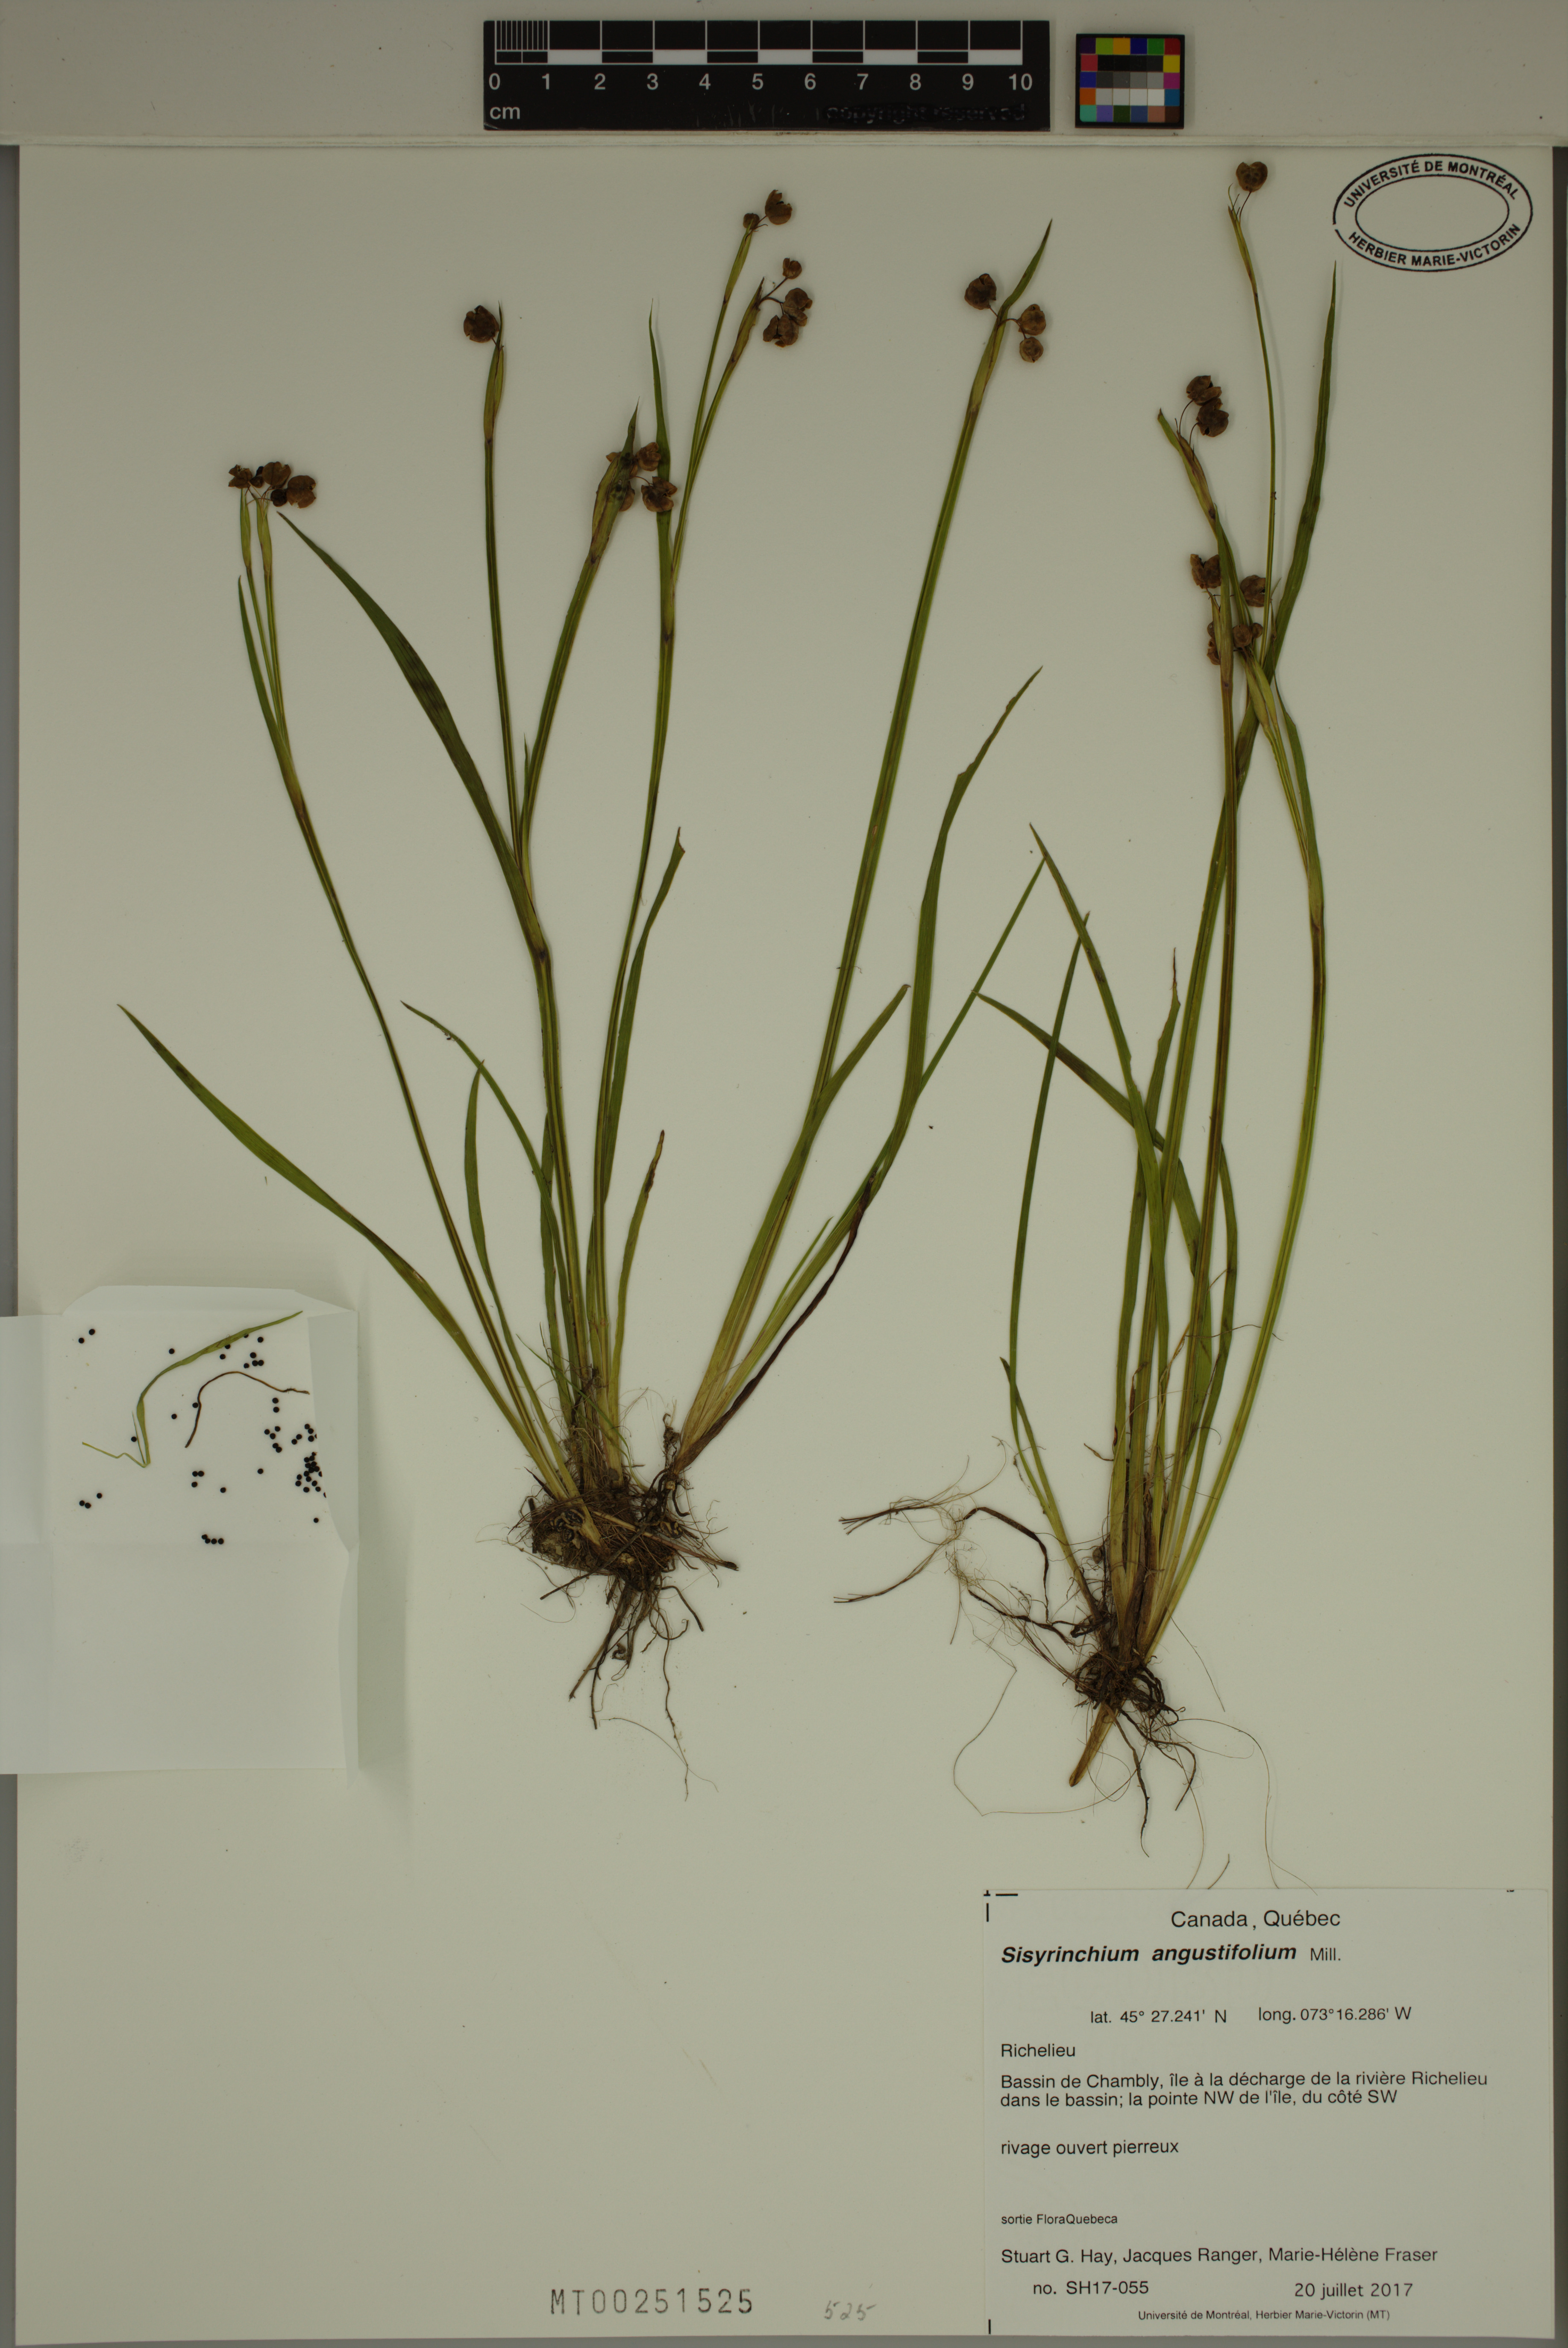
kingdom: Plantae
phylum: Tracheophyta
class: Liliopsida
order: Asparagales
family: Iridaceae
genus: Sisyrinchium
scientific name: Sisyrinchium angustifolium
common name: Narrow-leaf blue-eyed-grass
